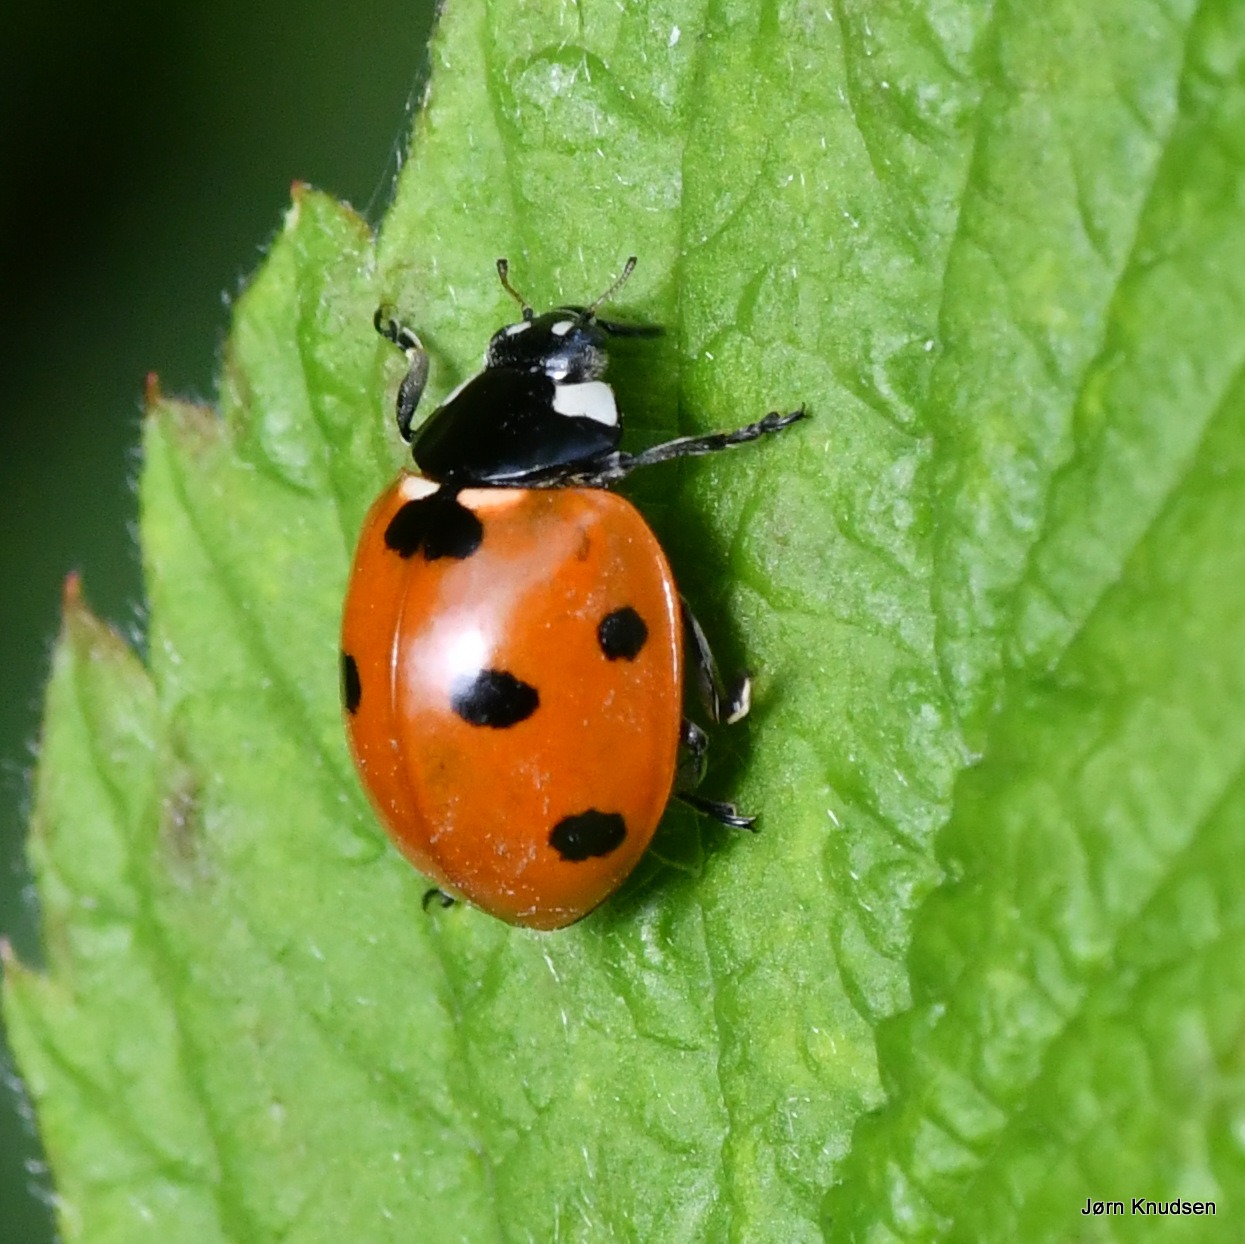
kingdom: Animalia
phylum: Arthropoda
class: Insecta
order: Coleoptera
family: Coccinellidae
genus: Coccinella
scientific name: Coccinella septempunctata
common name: Syvplettet mariehøne
